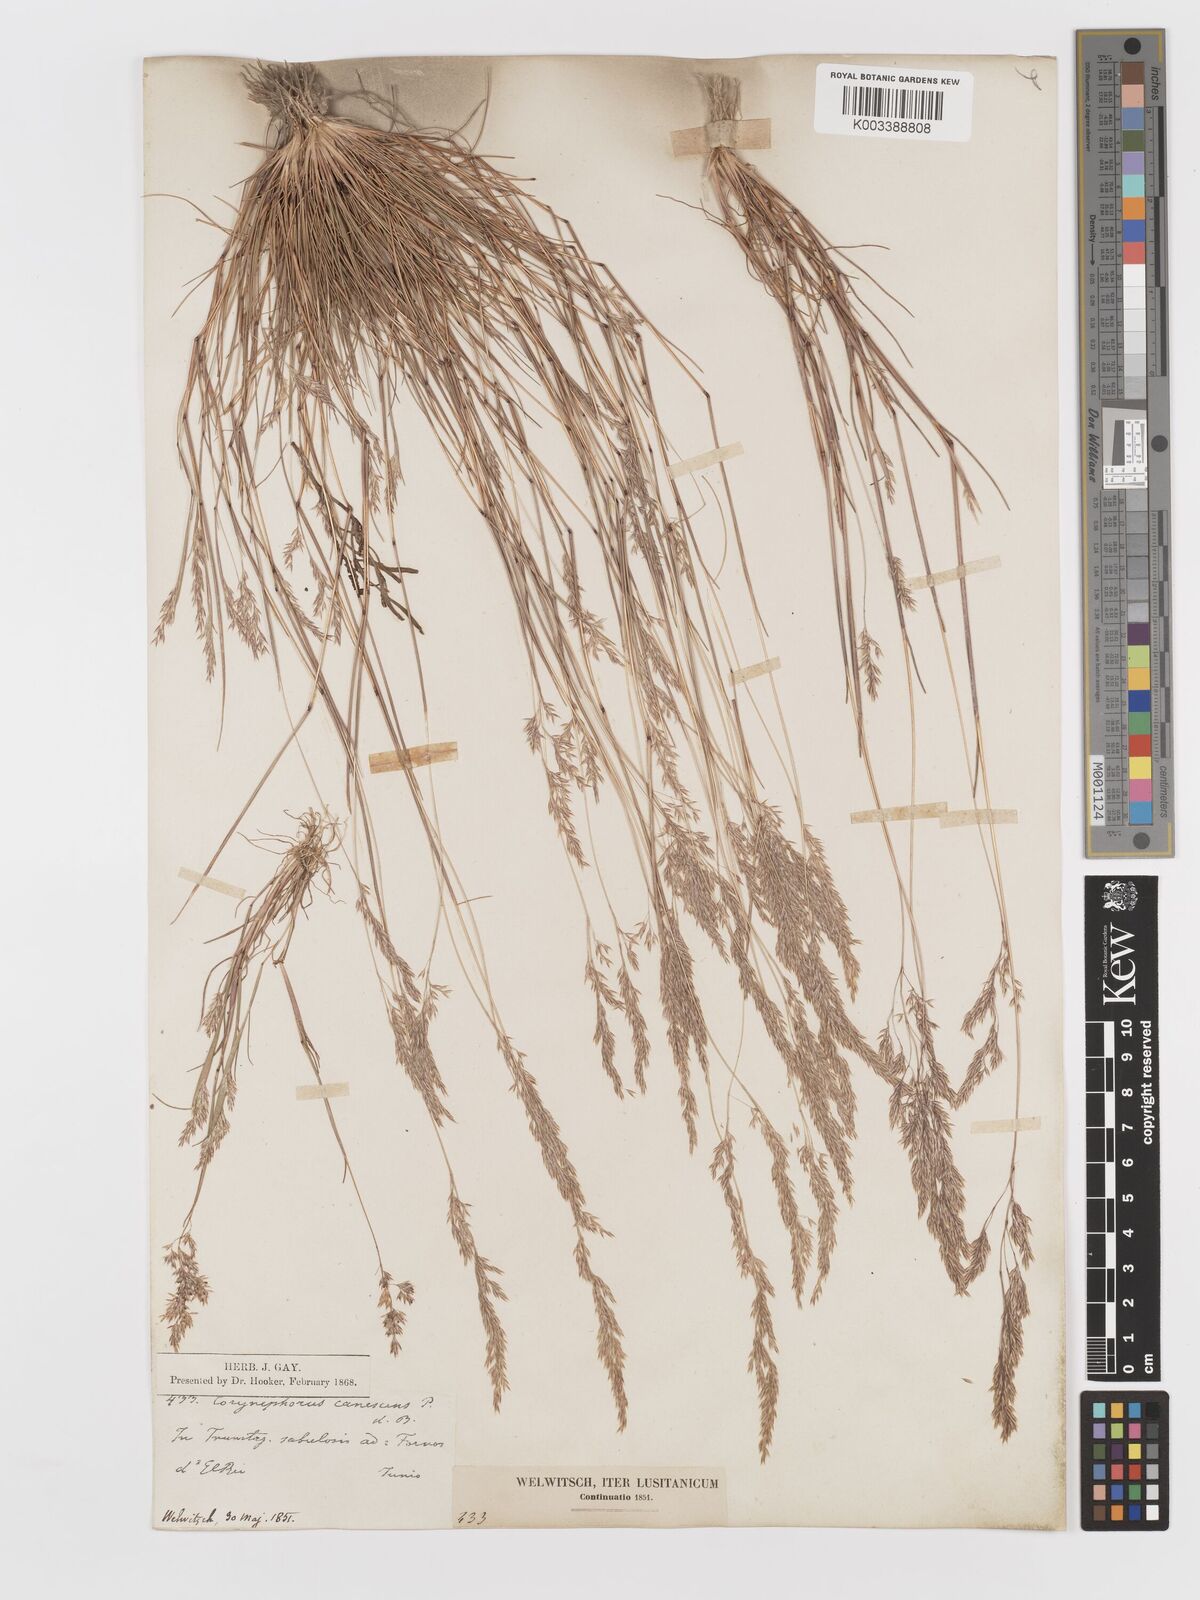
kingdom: Plantae
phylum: Tracheophyta
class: Liliopsida
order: Poales
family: Poaceae
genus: Corynephorus
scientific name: Corynephorus canescens
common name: Grey hair-grass
